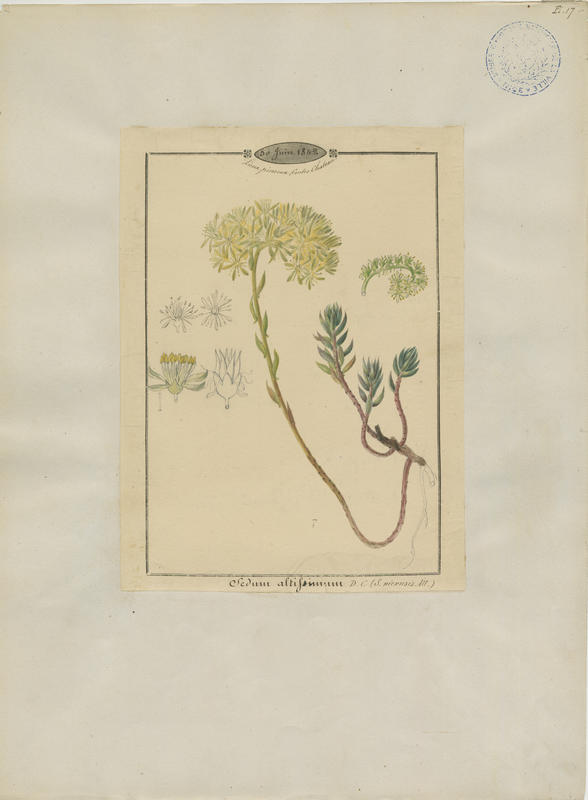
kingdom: Plantae
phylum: Tracheophyta
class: Magnoliopsida
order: Saxifragales
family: Crassulaceae
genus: Petrosedum
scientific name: Petrosedum sediforme
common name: Pale stonecrop
